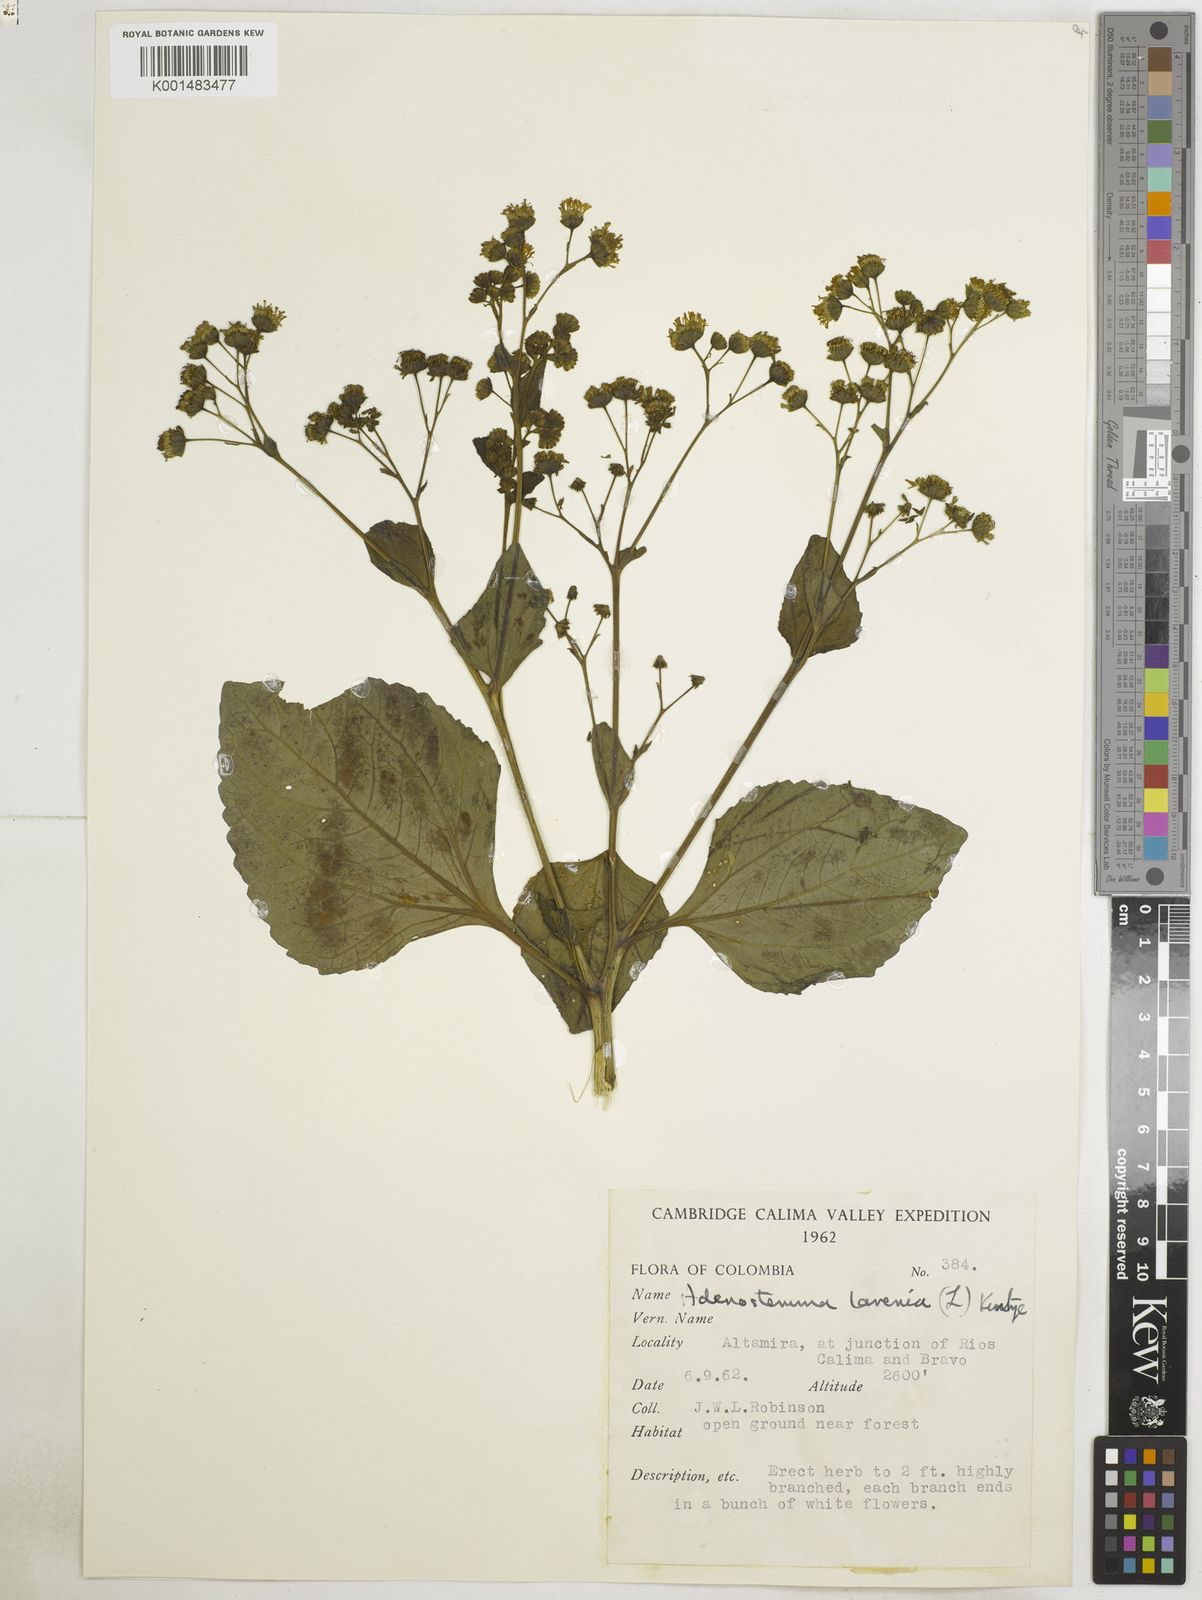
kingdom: Plantae
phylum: Tracheophyta
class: Magnoliopsida
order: Asterales
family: Asteraceae
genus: Adenostemma
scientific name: Adenostemma lavenia
